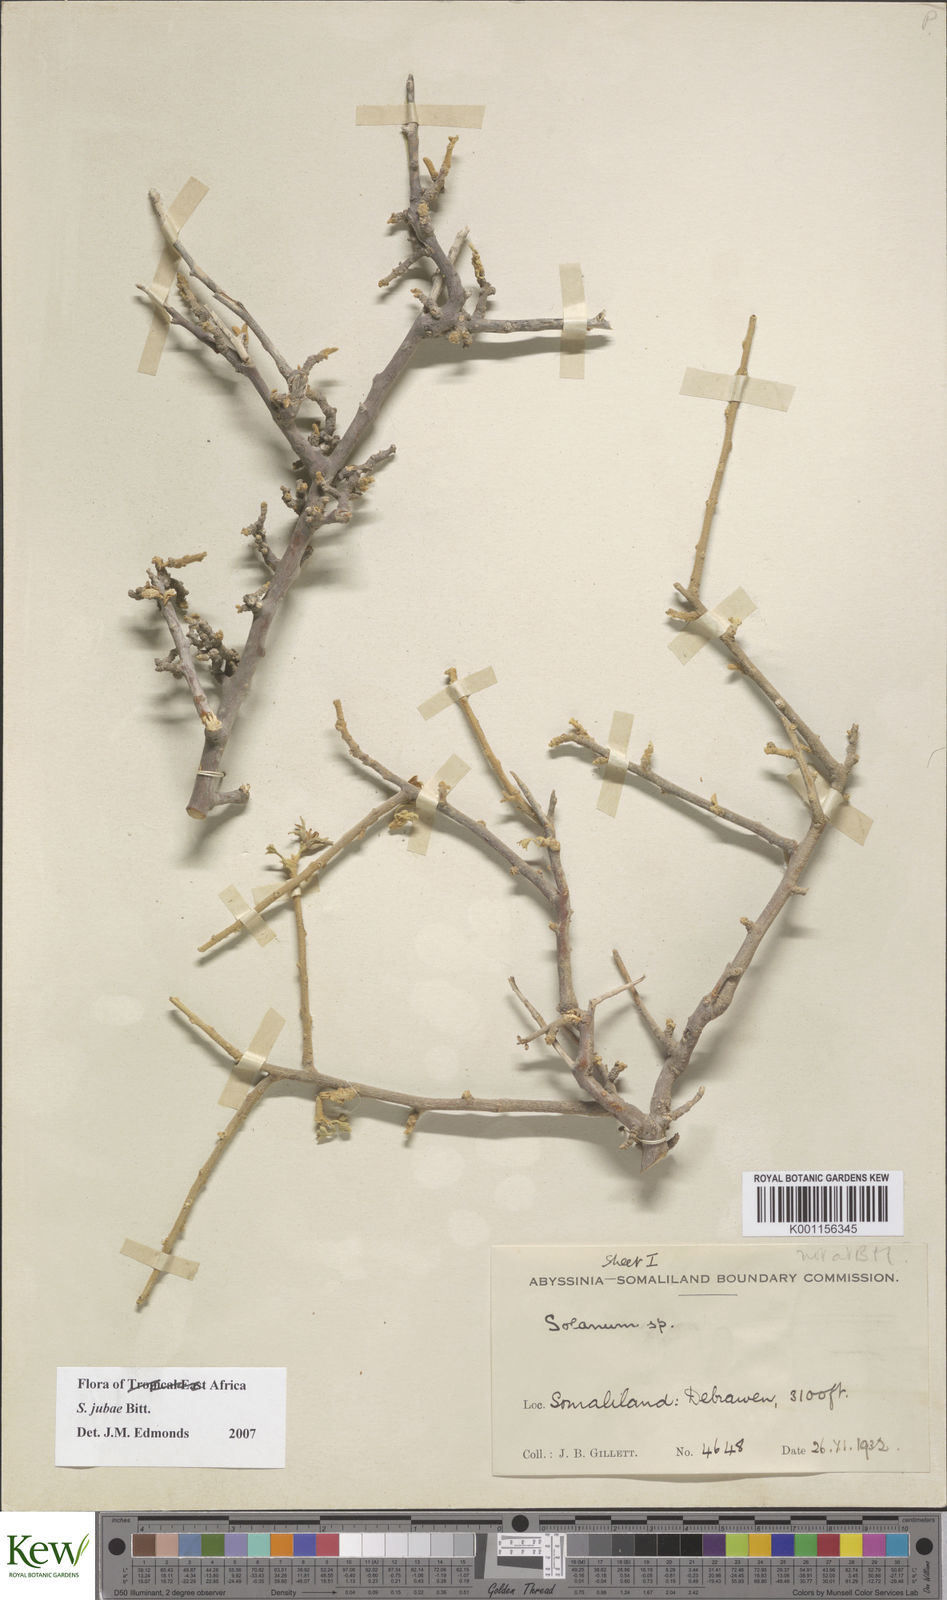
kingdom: Plantae
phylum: Tracheophyta
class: Magnoliopsida
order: Solanales
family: Solanaceae
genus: Solanum
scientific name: Solanum jubae
